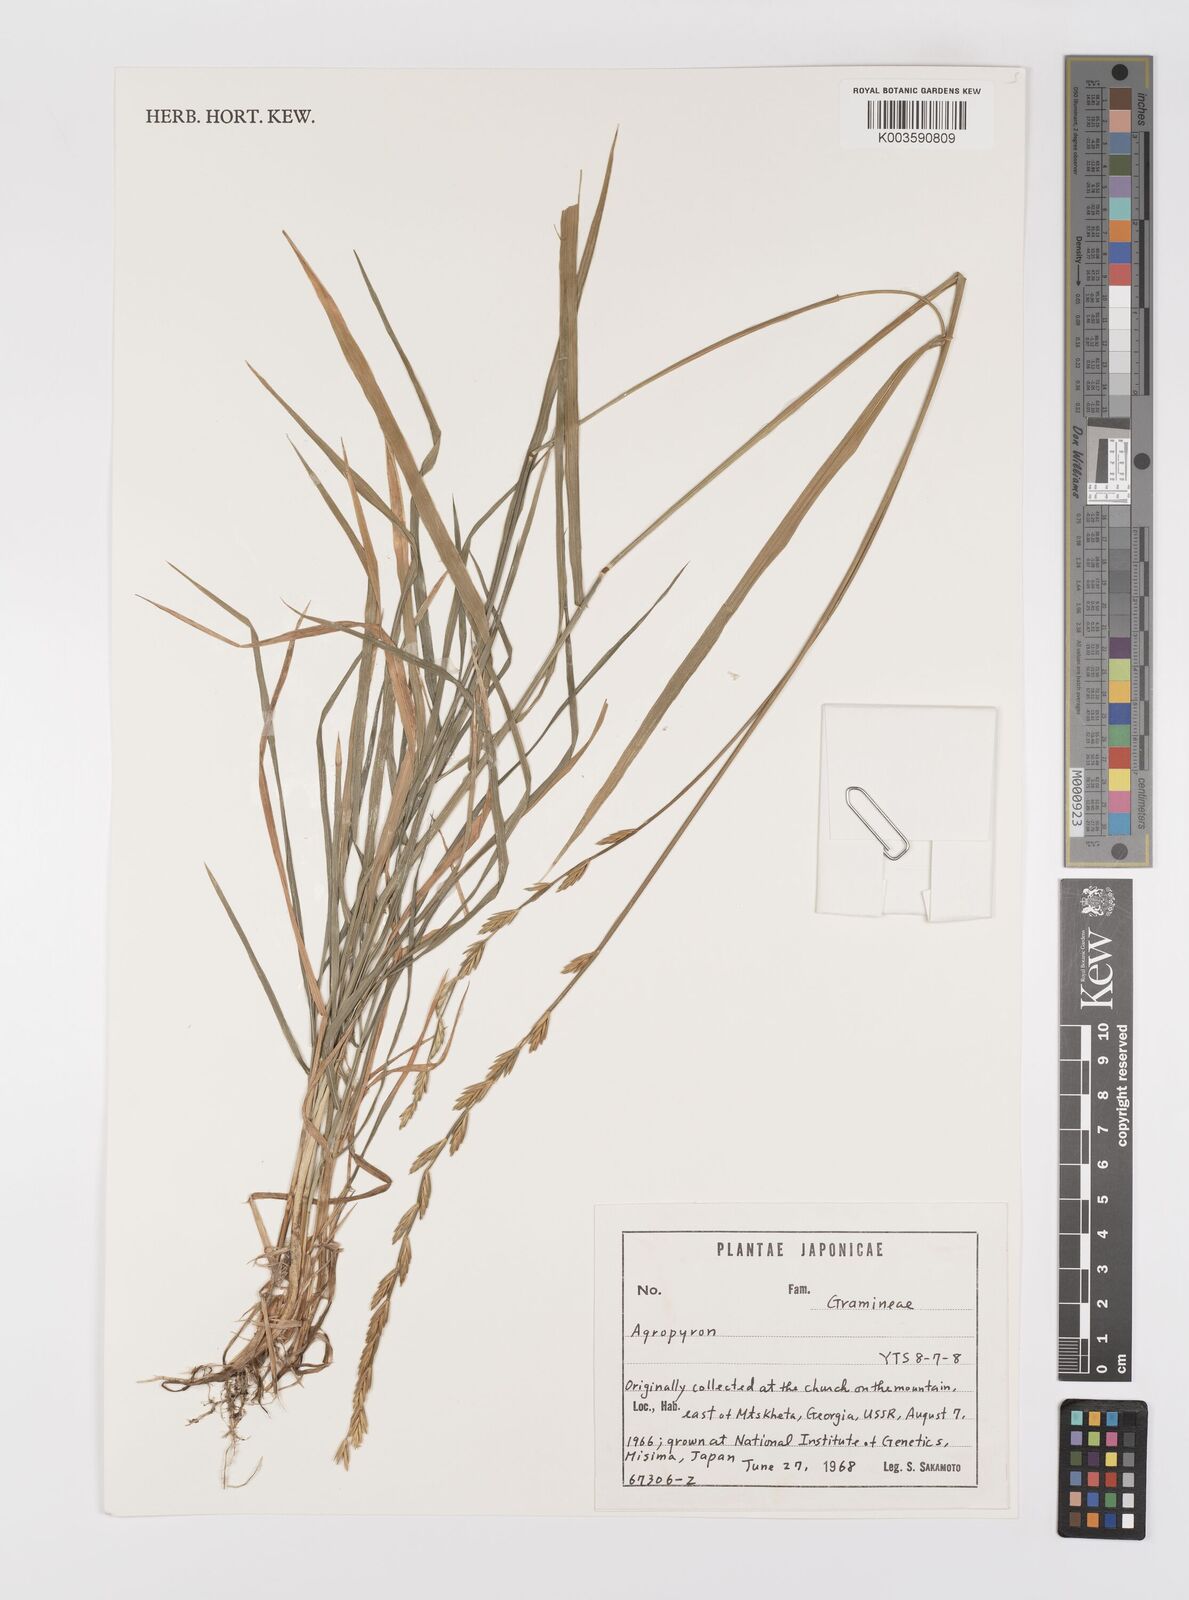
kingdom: Plantae
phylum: Tracheophyta
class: Liliopsida
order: Poales
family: Poaceae
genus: Elymus
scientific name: Elymus
